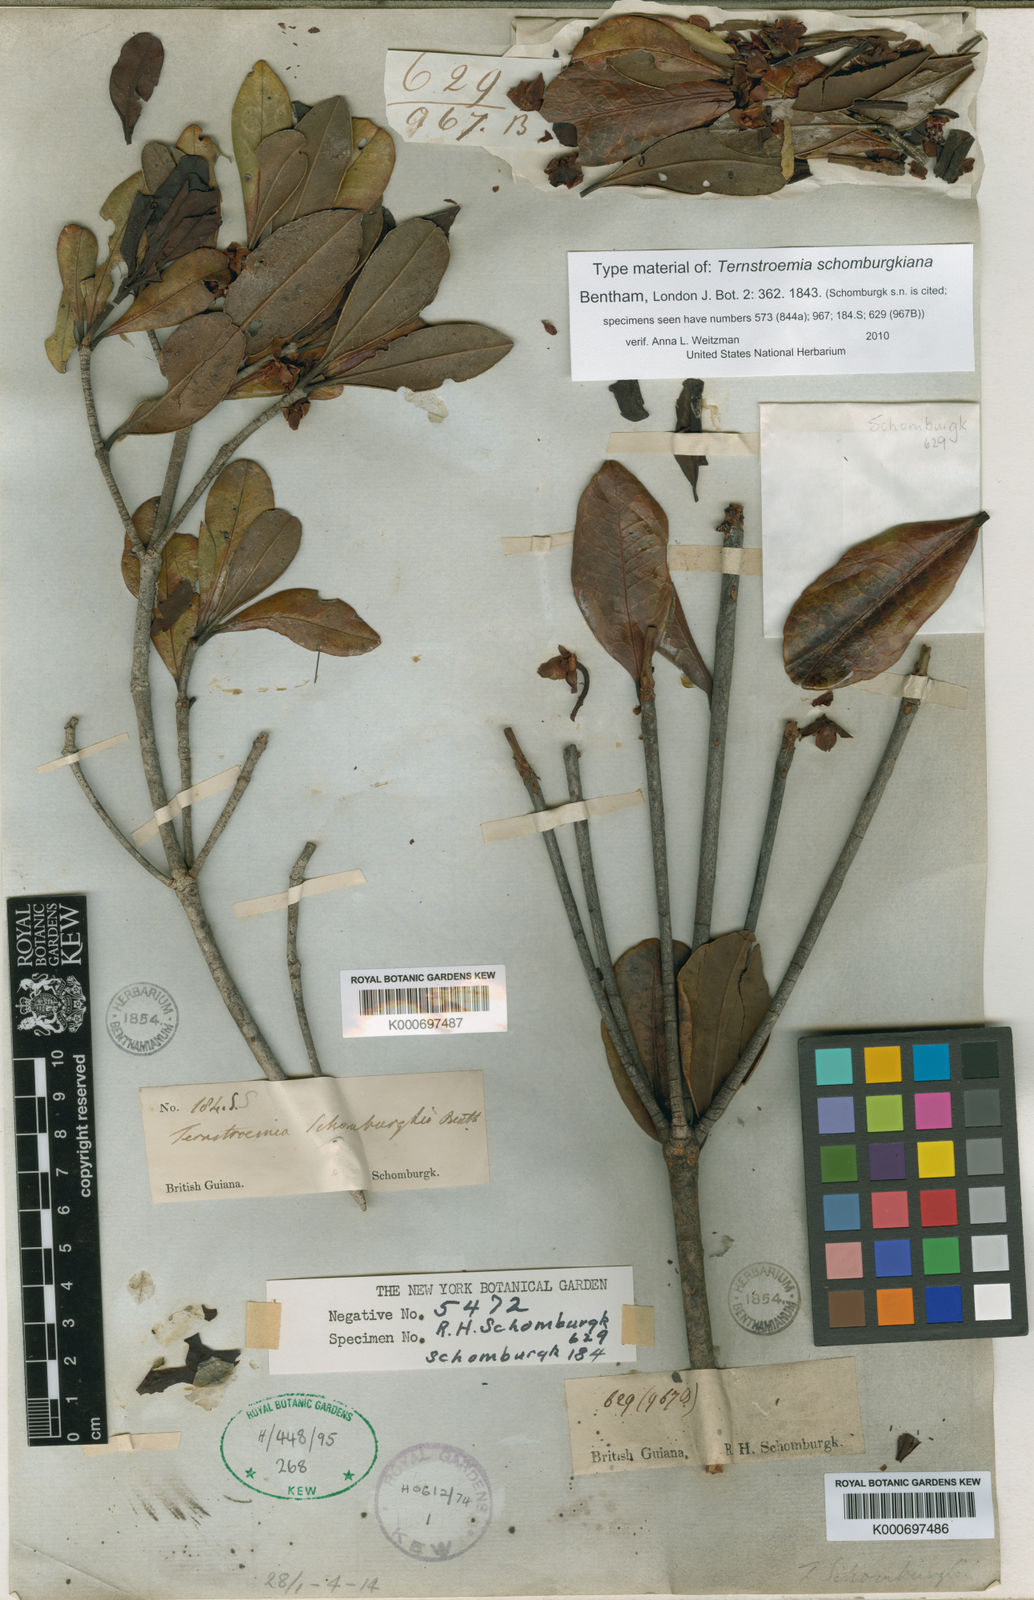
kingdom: Plantae
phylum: Tracheophyta
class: Magnoliopsida
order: Ericales
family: Pentaphylacaceae
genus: Ternstroemia
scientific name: Ternstroemia schomburgkiana
